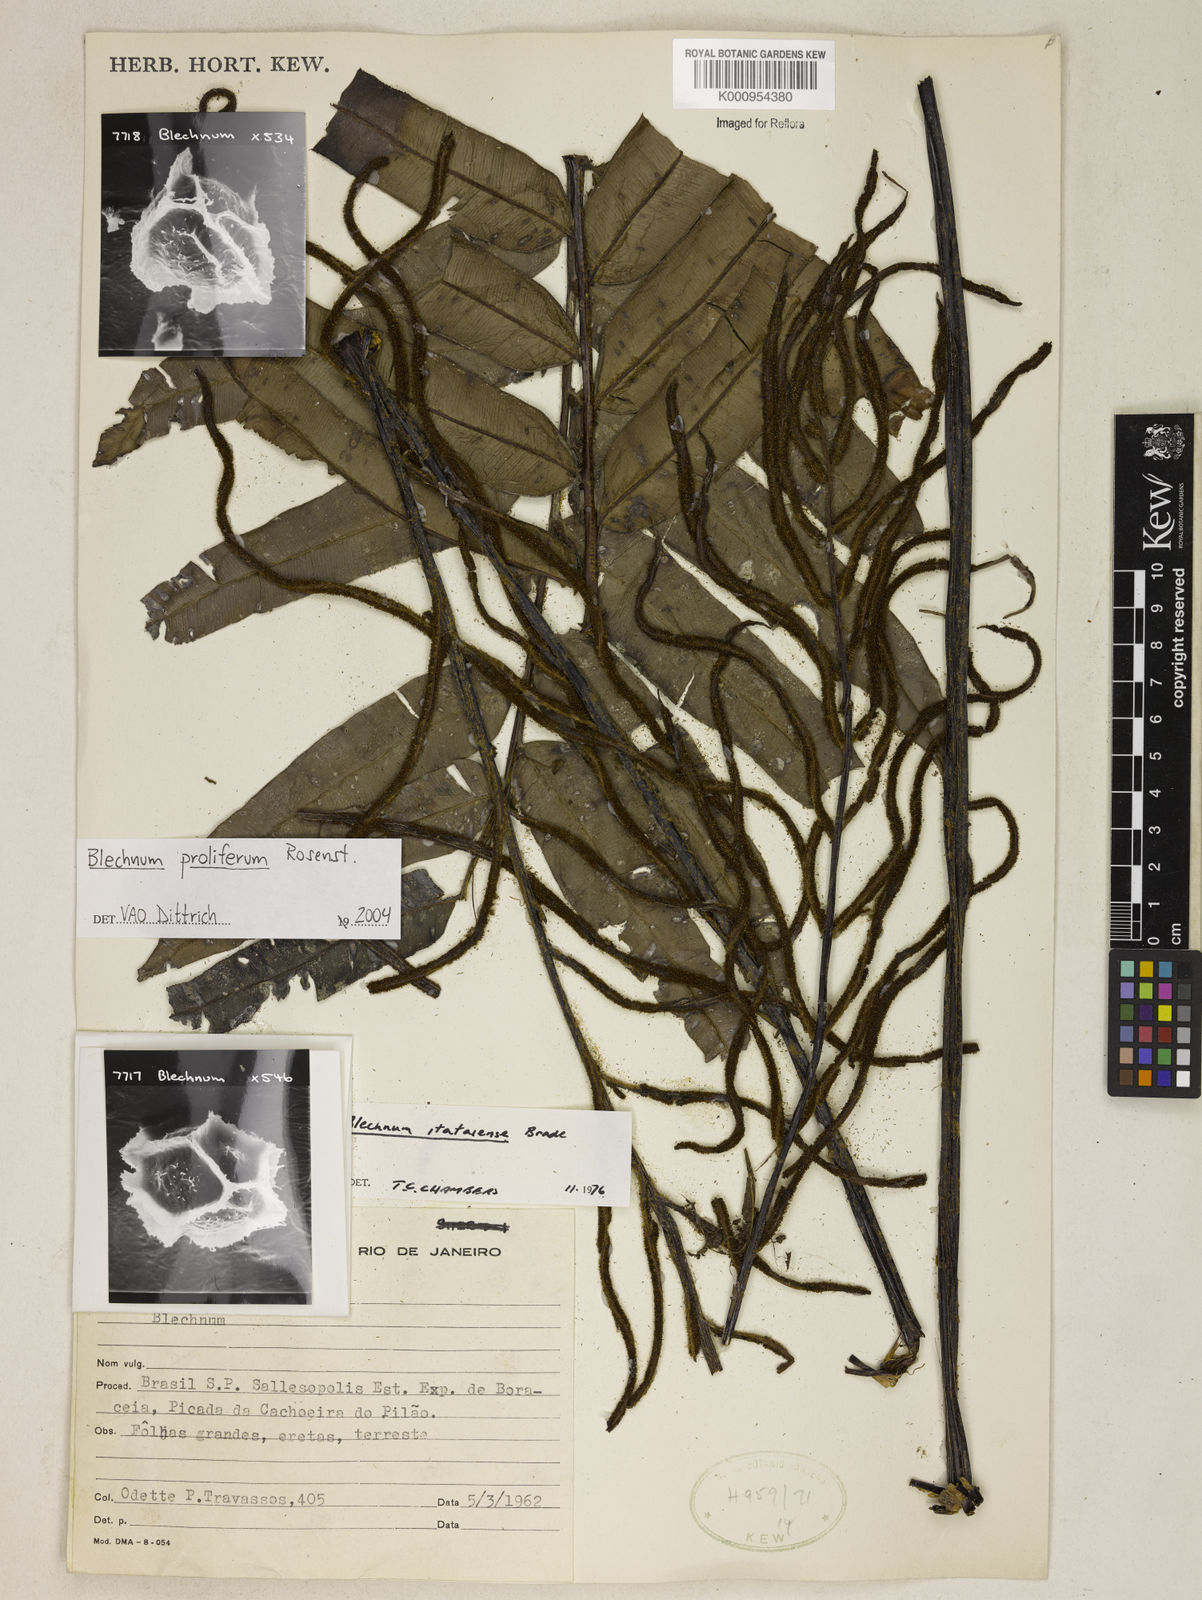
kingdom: Plantae
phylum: Tracheophyta
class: Polypodiopsida
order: Polypodiales
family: Blechnaceae
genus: Parablechnum
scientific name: Parablechnum cordatum
